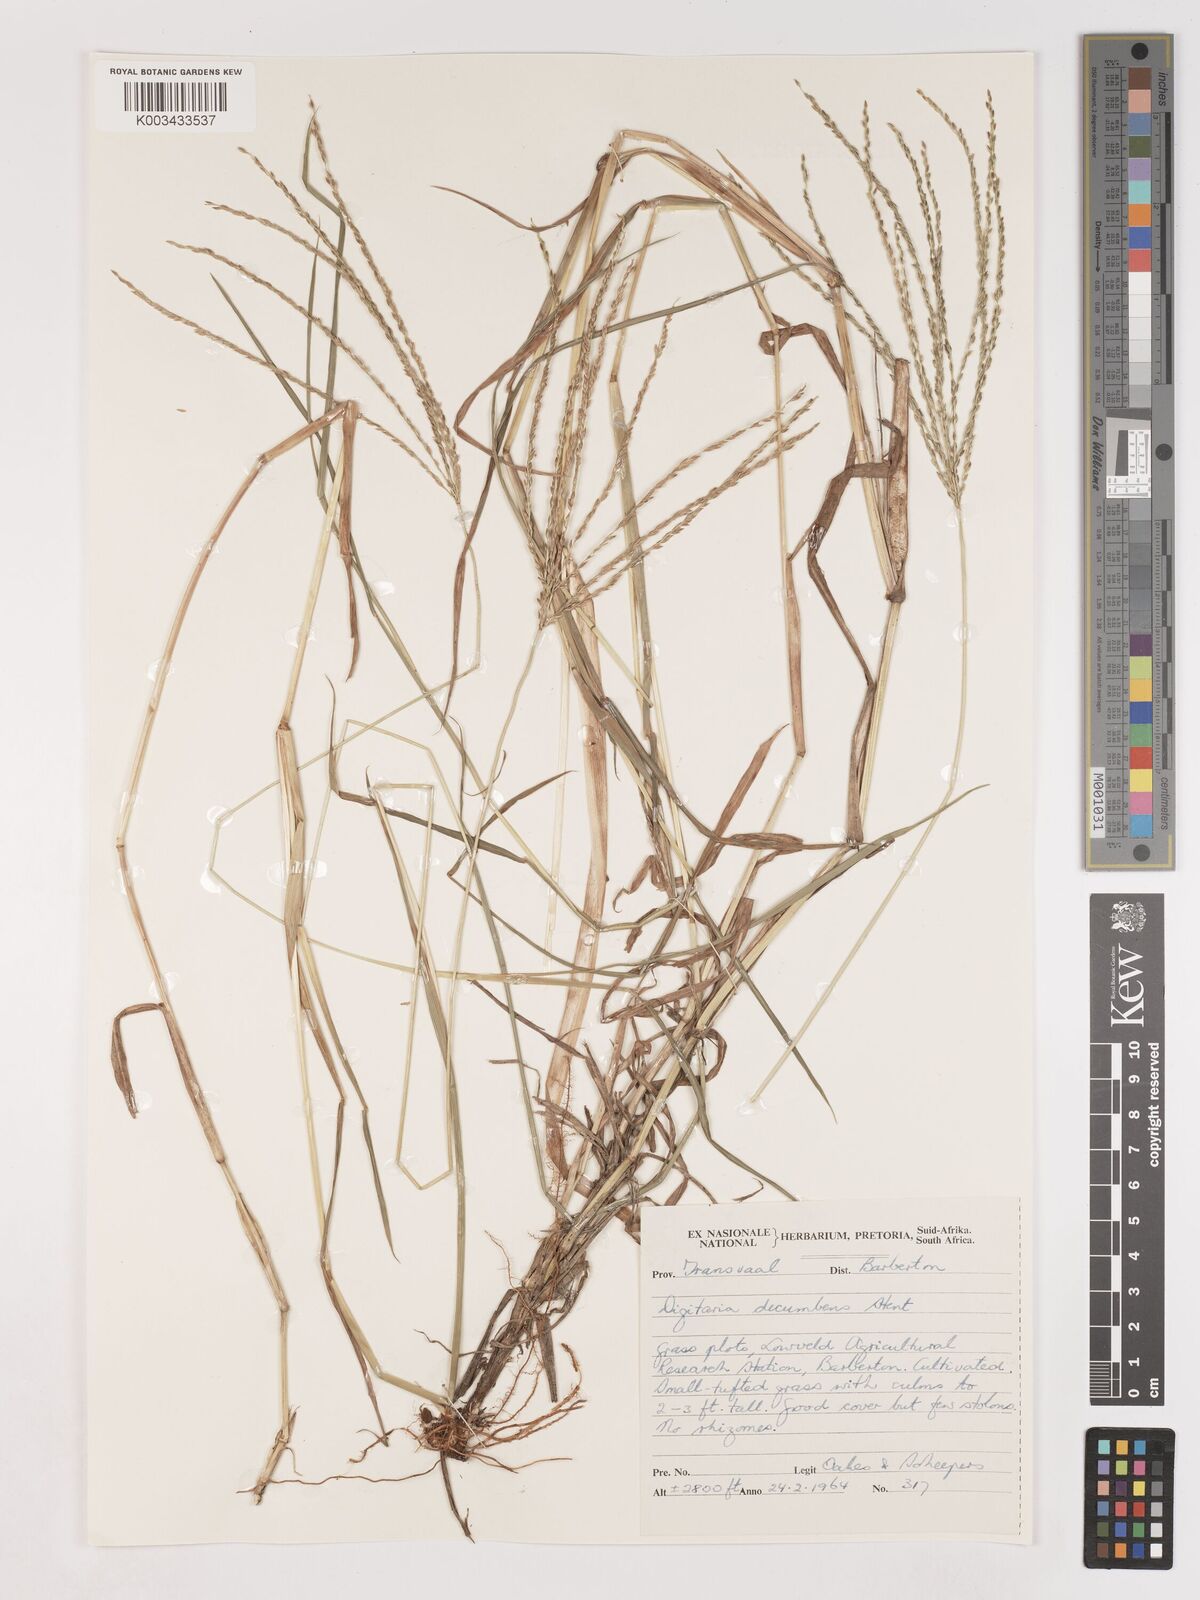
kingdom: Plantae
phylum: Tracheophyta
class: Liliopsida
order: Poales
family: Poaceae
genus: Digitaria
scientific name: Digitaria eriantha
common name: Digitgrass
